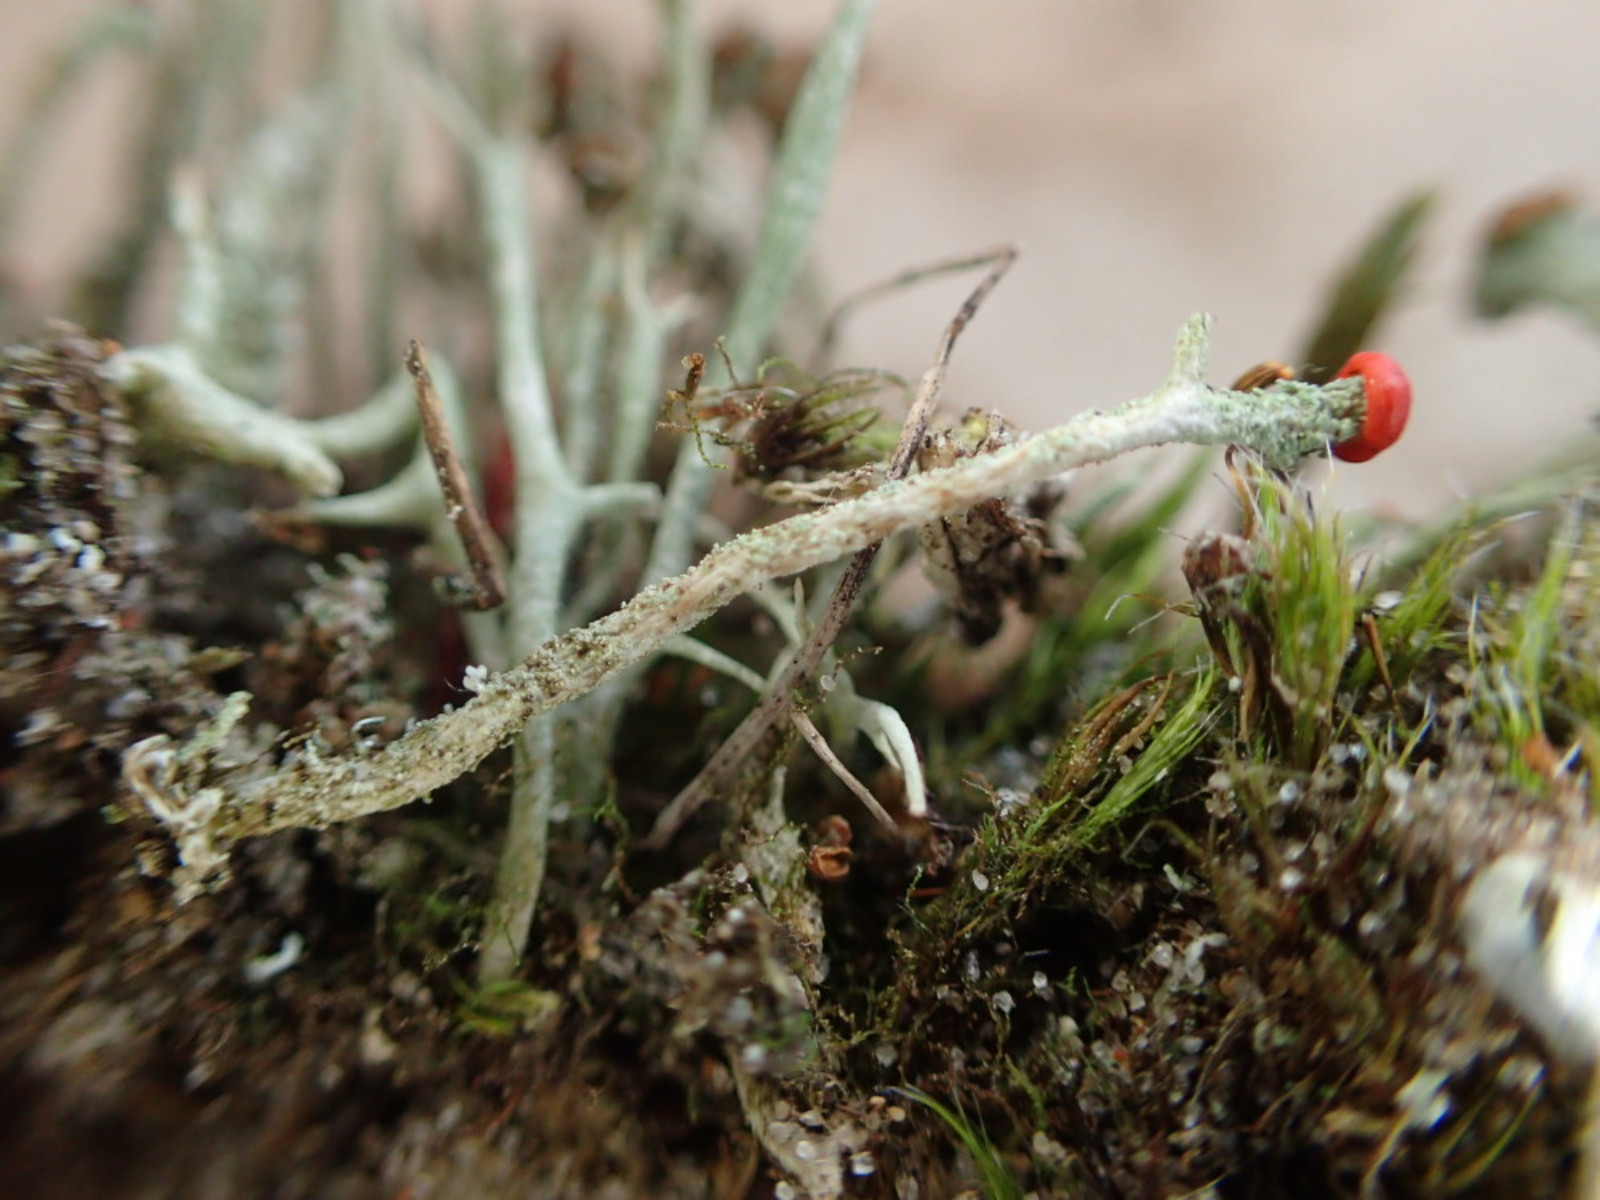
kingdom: Fungi
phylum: Ascomycota
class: Lecanoromycetes
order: Lecanorales
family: Cladoniaceae
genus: Cladonia
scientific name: Cladonia floerkeana
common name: lakrød bægerlav
